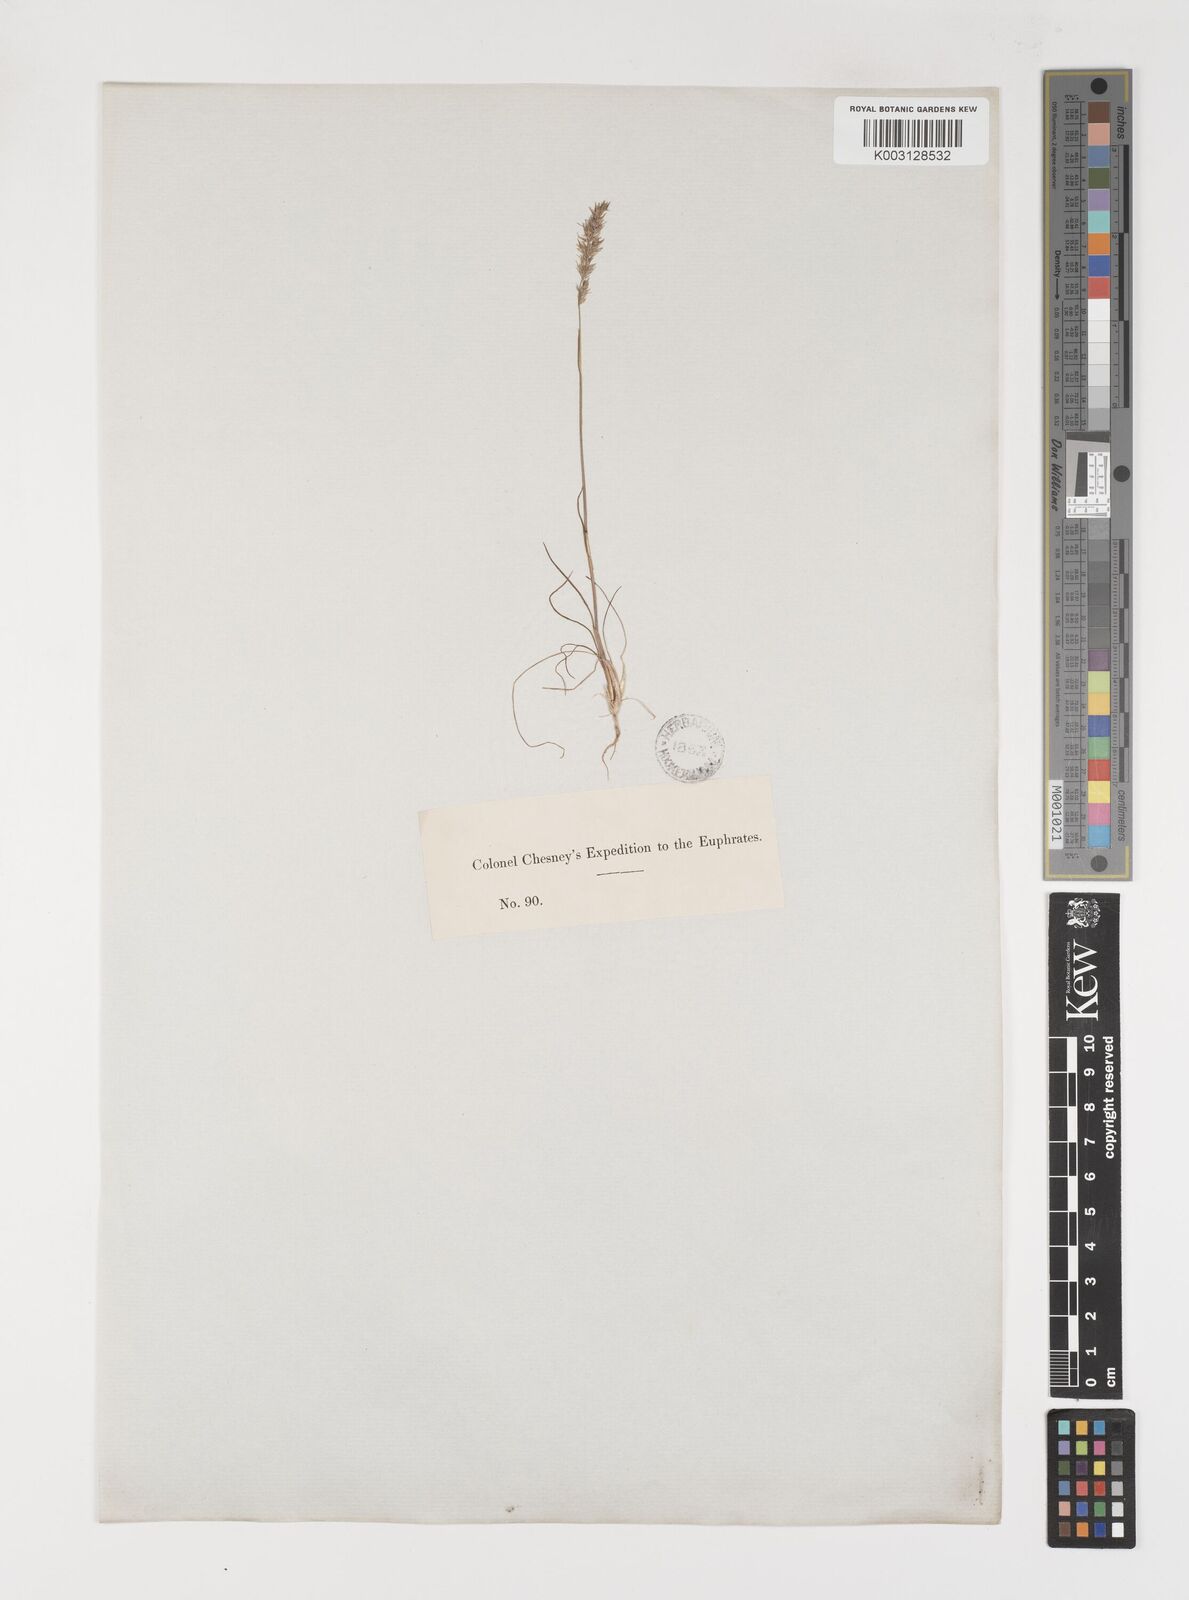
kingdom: Plantae
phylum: Tracheophyta
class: Liliopsida
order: Poales
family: Poaceae
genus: Poa
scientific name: Poa sinaica
